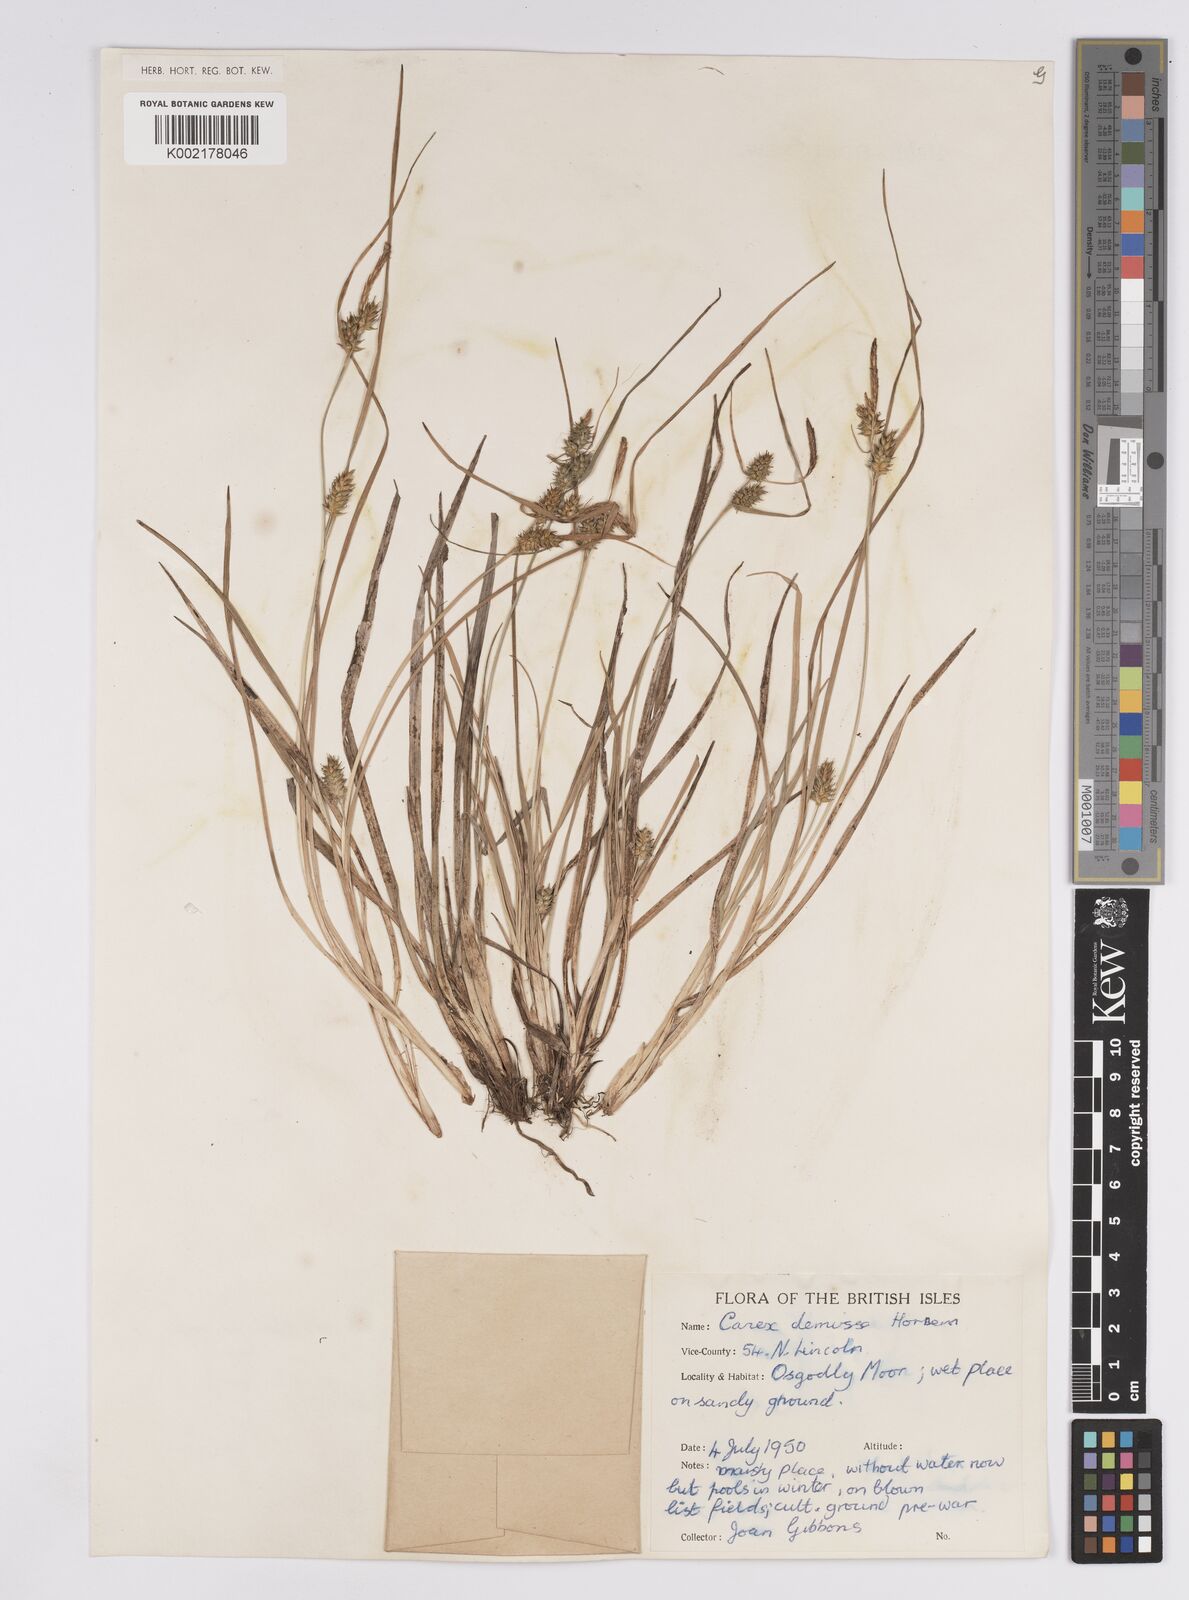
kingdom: Plantae
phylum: Tracheophyta
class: Liliopsida
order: Poales
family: Cyperaceae
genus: Carex
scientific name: Carex demissa
